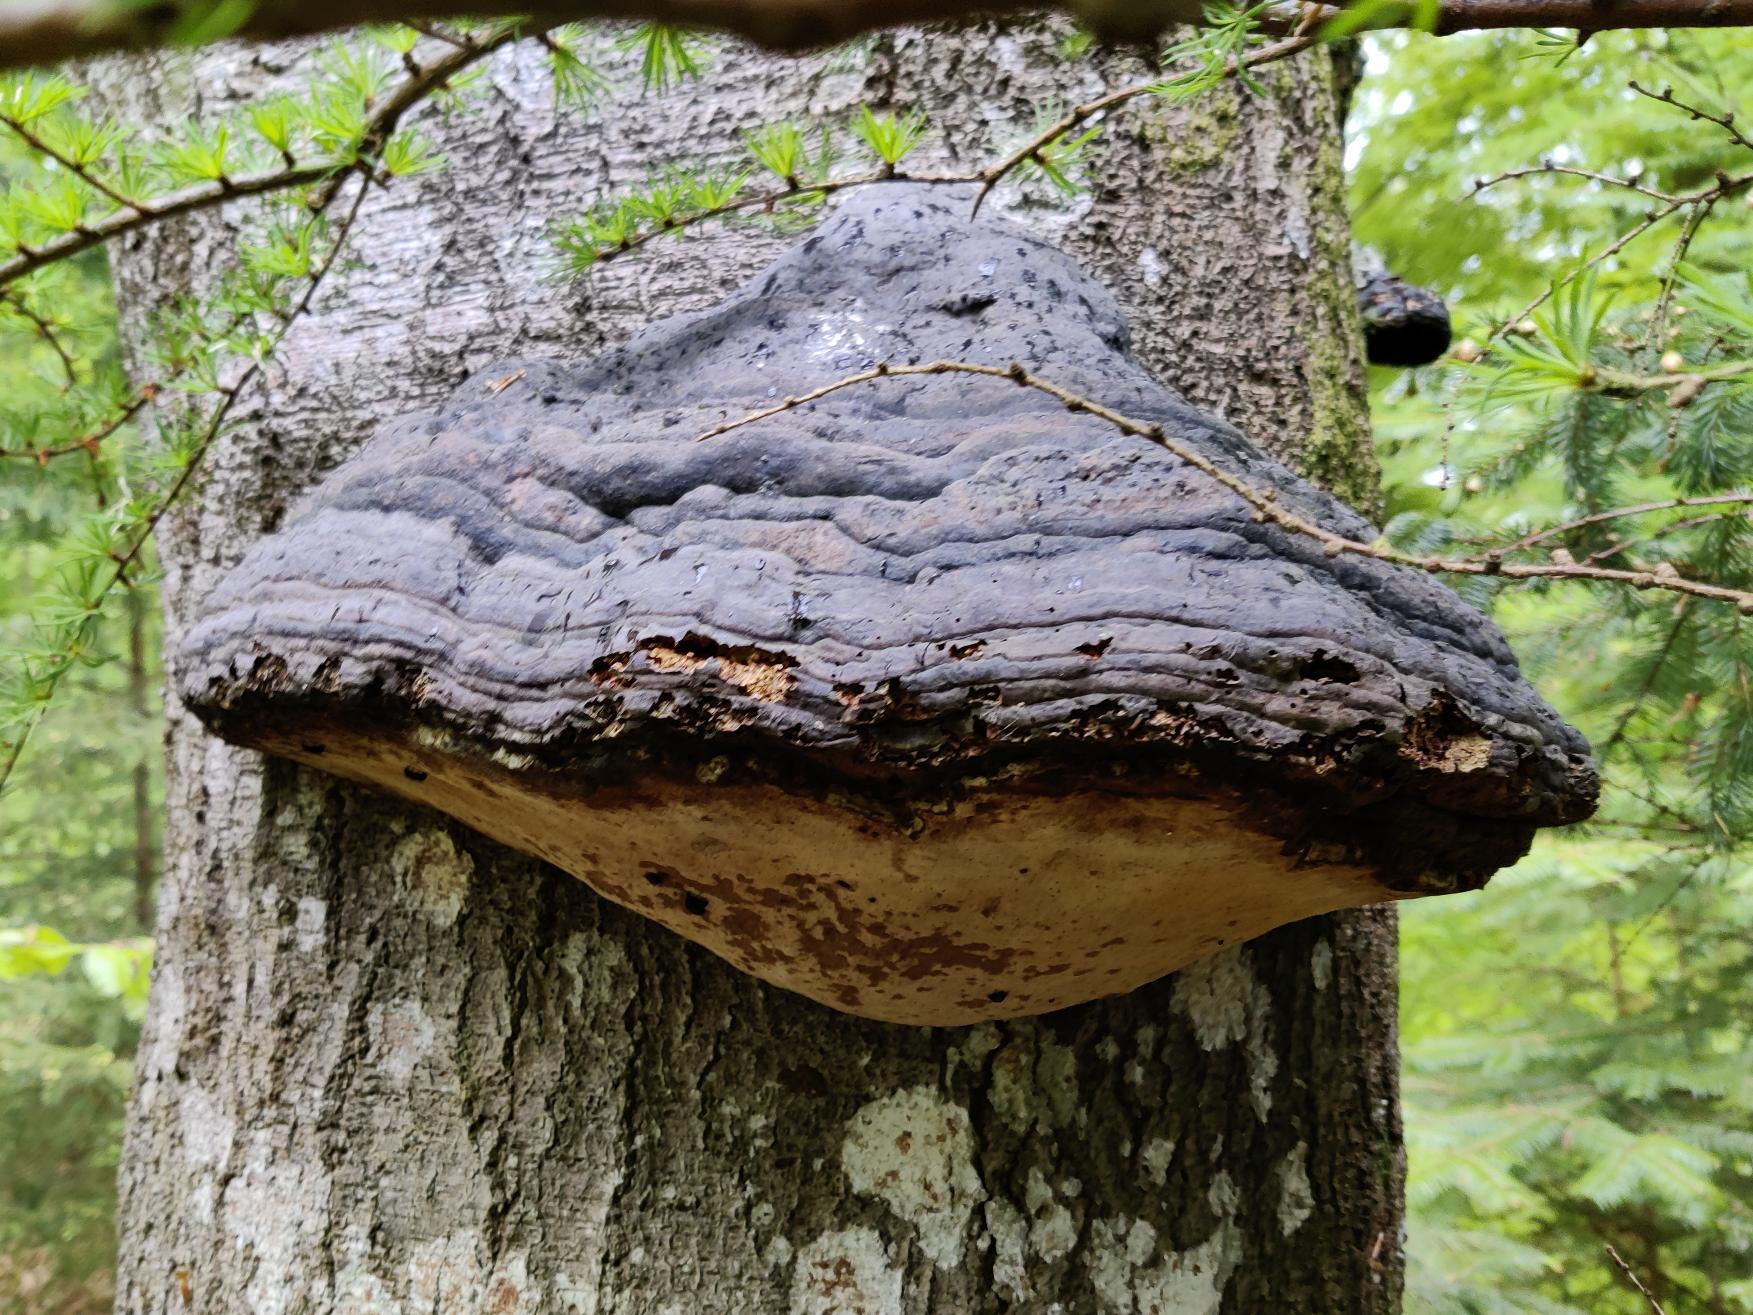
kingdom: Fungi
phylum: Basidiomycota
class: Agaricomycetes
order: Polyporales
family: Polyporaceae
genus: Fomes
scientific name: Fomes fomentarius
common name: Tøndersvamp
